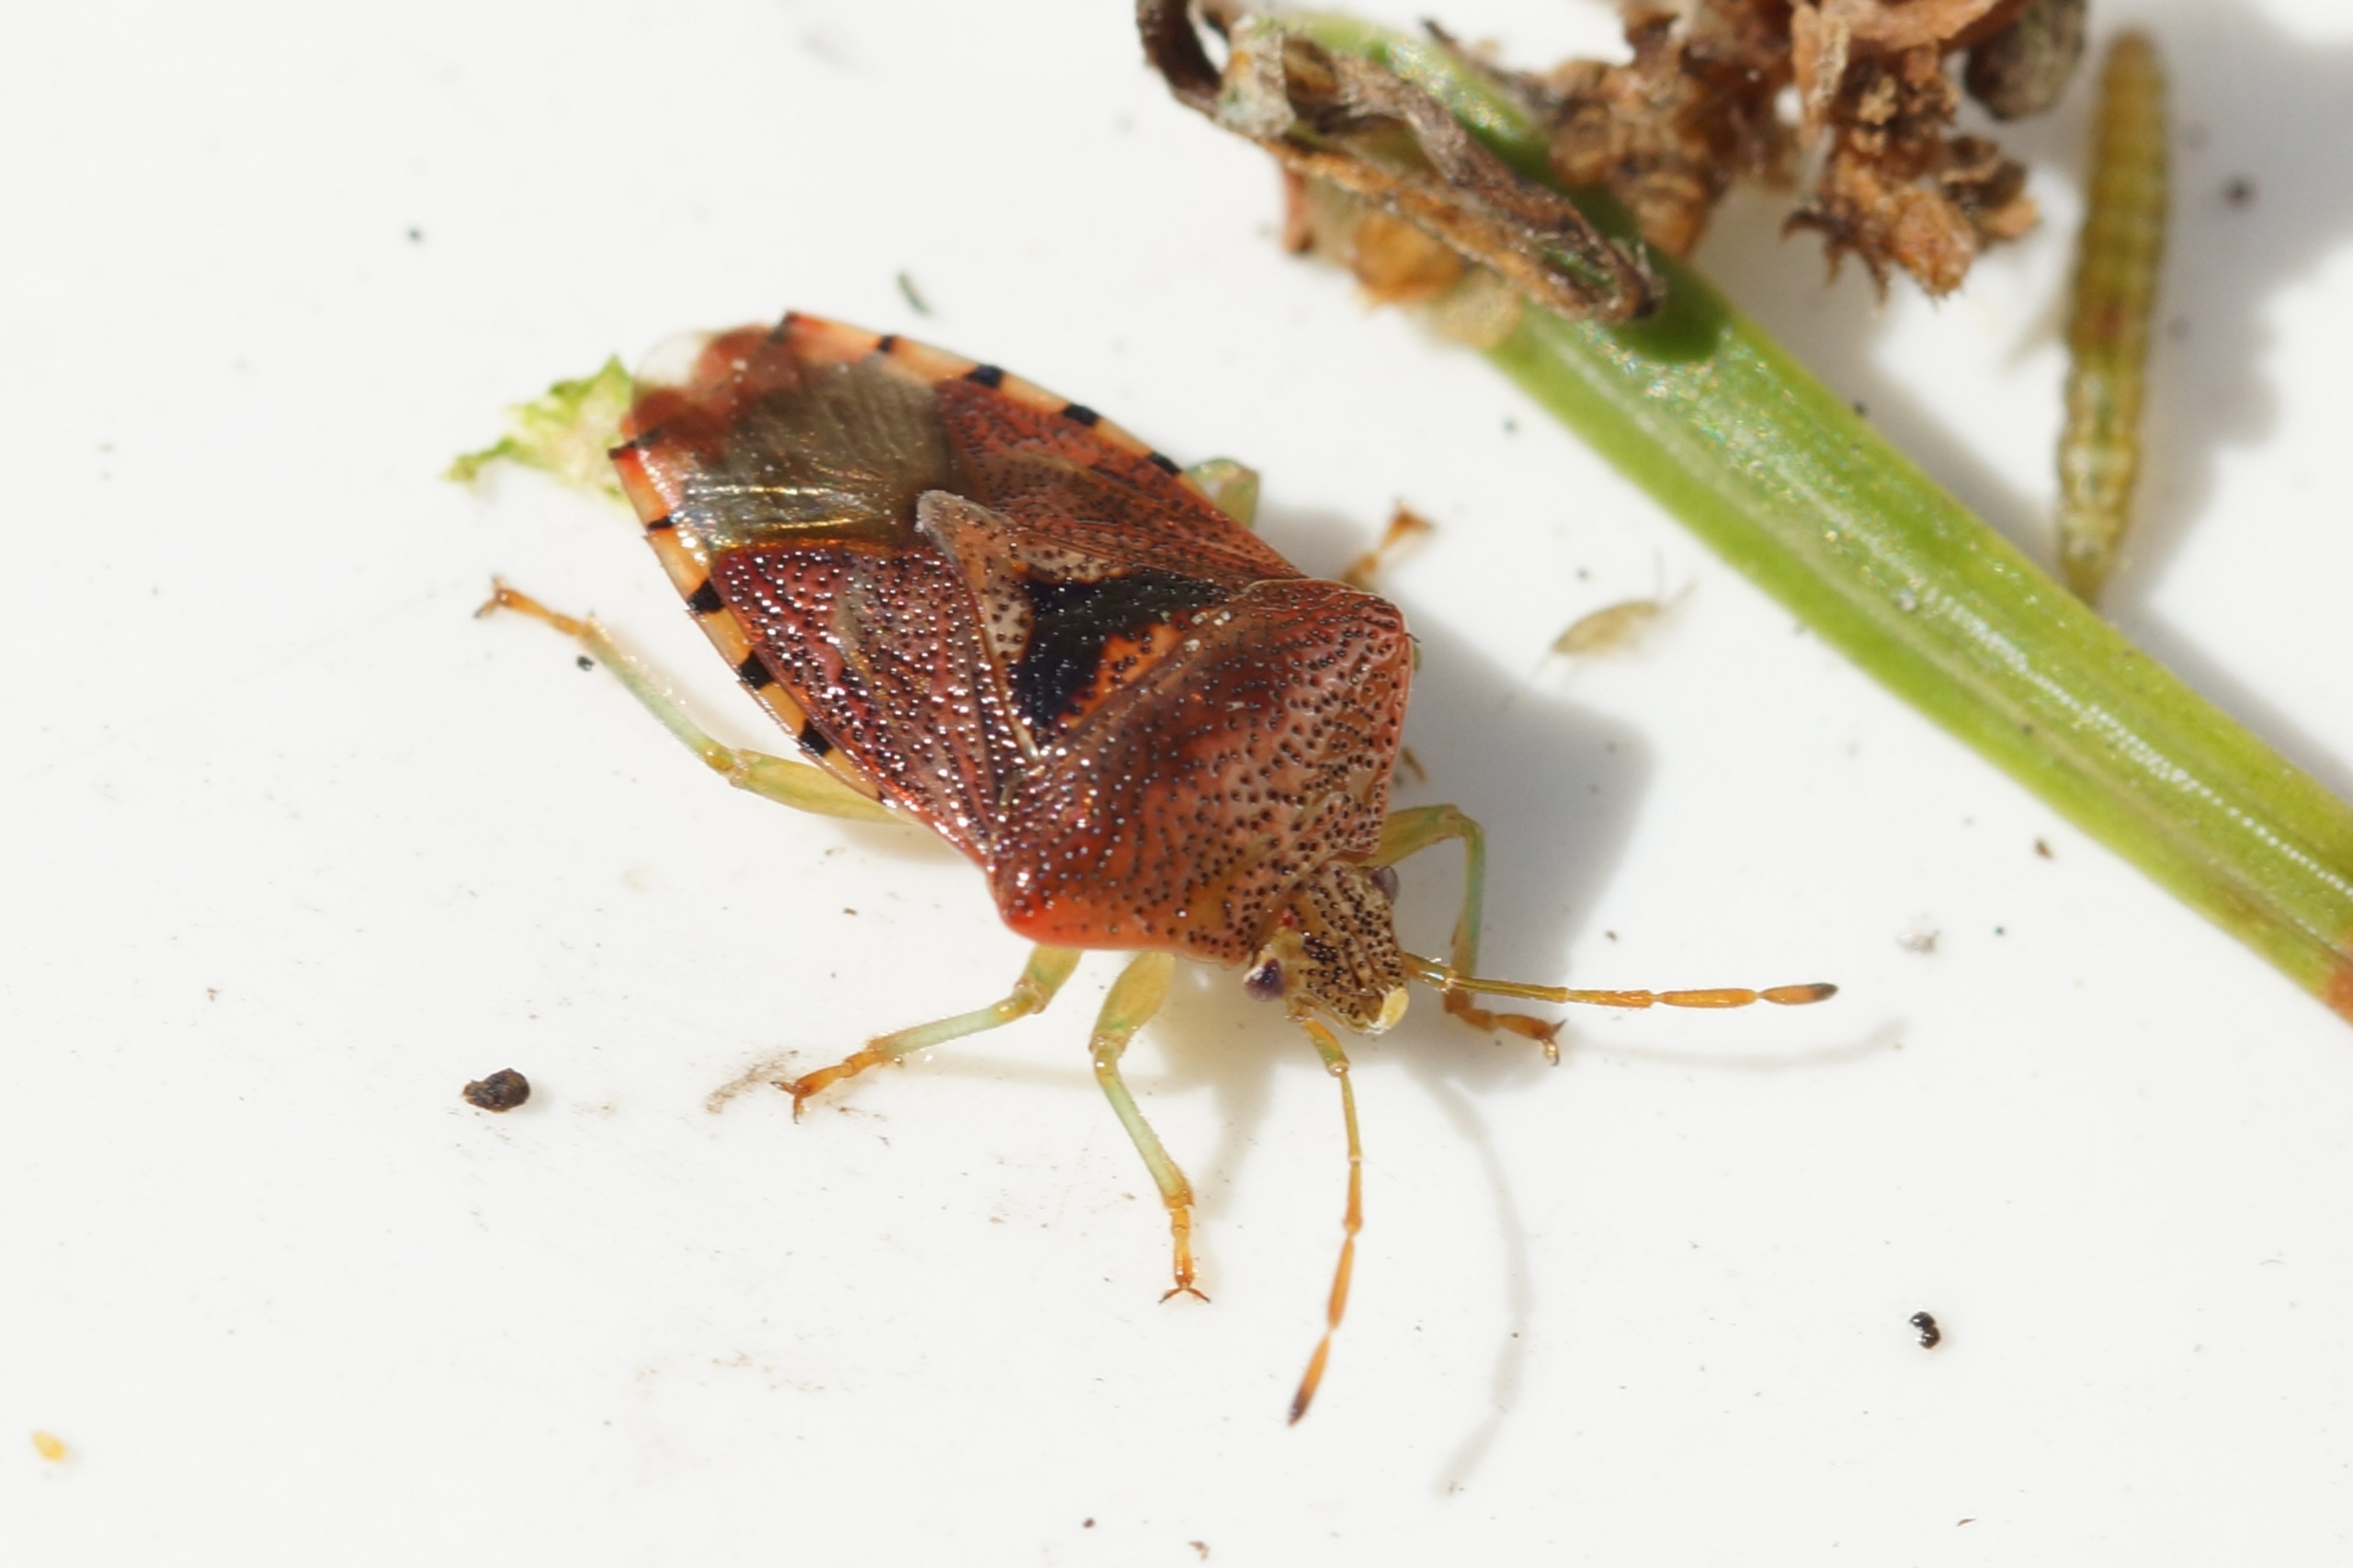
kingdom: Animalia
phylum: Arthropoda
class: Insecta
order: Hemiptera
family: Acanthosomatidae
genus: Elasmucha
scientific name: Elasmucha grisea
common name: Almindelig birketæge
